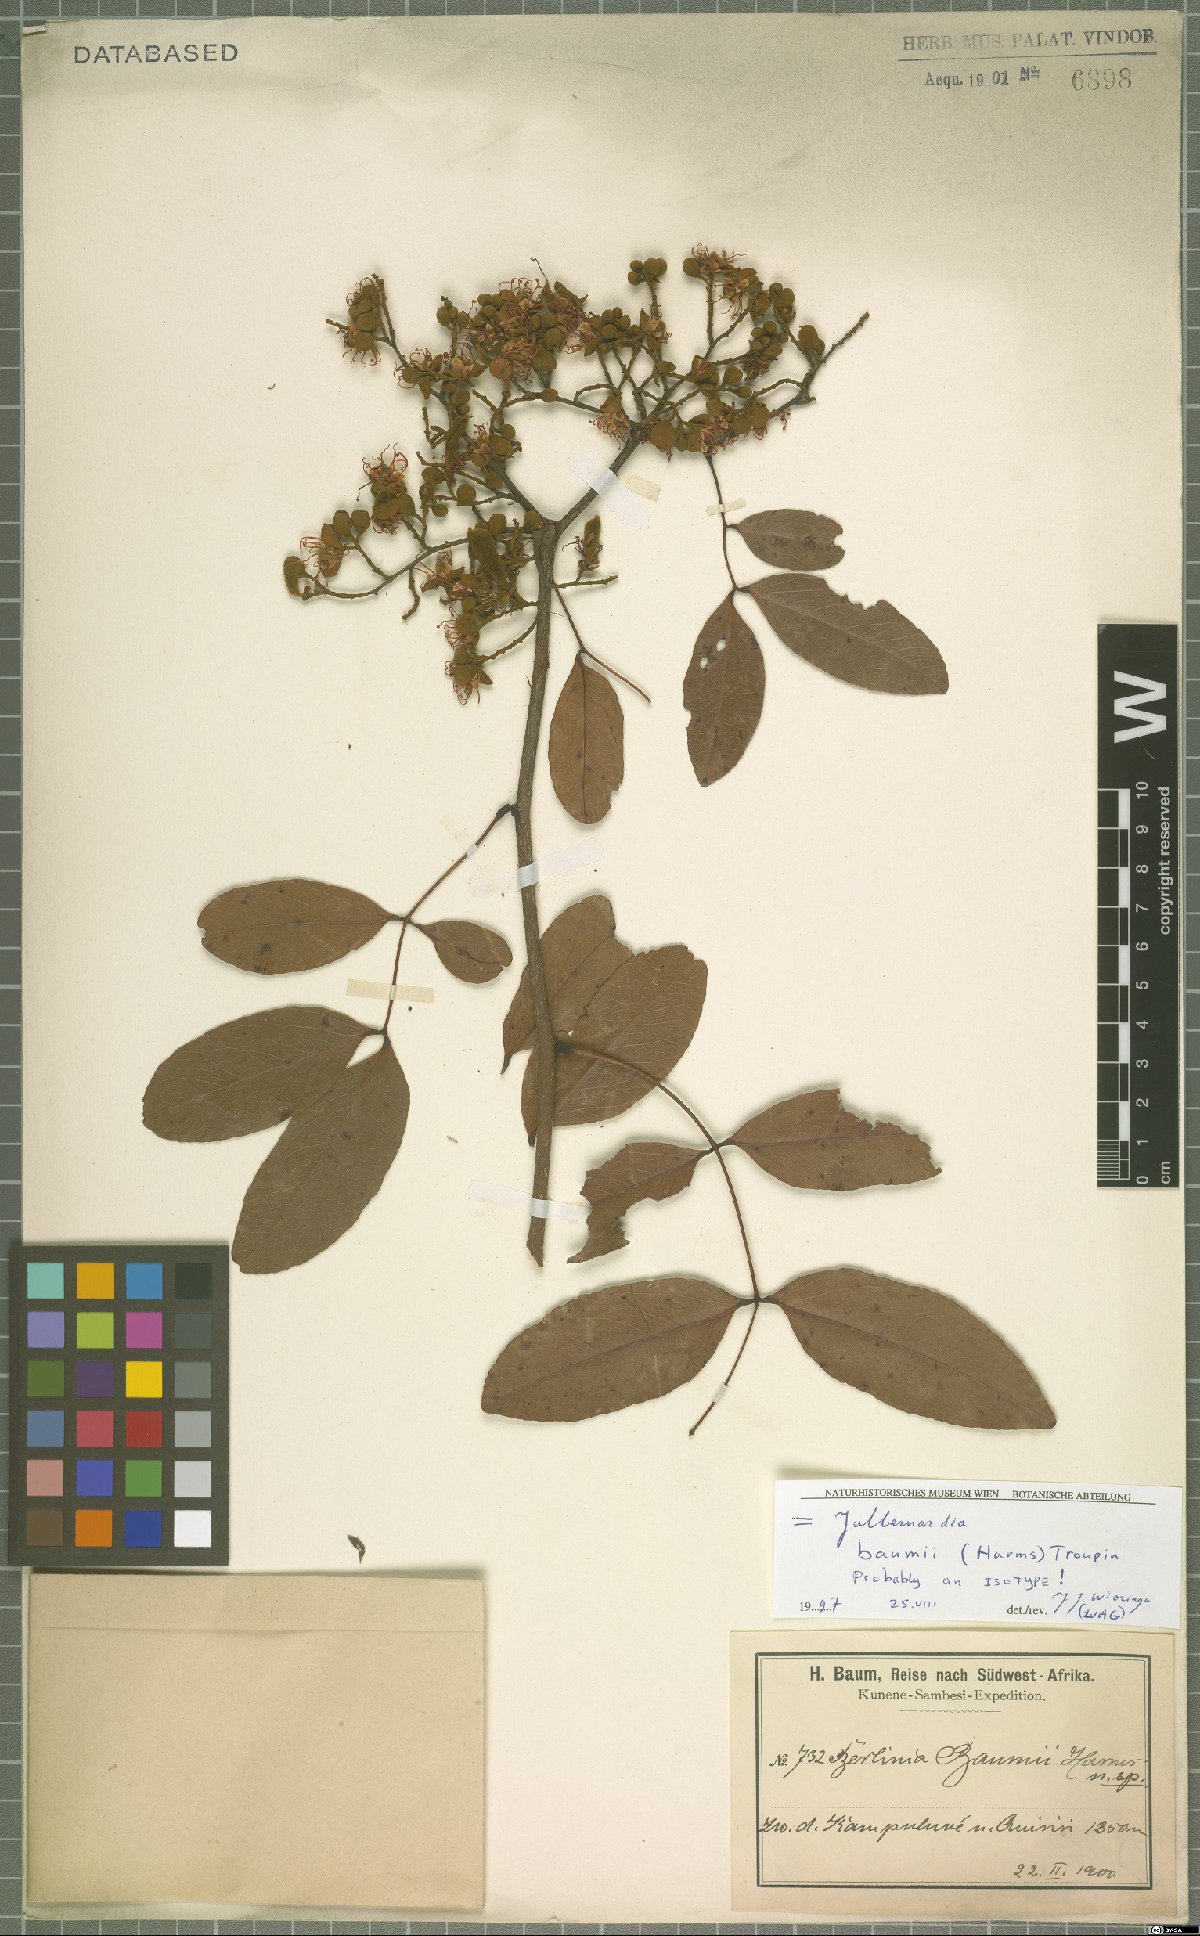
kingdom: Plantae
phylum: Tracheophyta
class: Magnoliopsida
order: Fabales
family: Fabaceae
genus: Julbernardia
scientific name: Julbernardia paniculata
